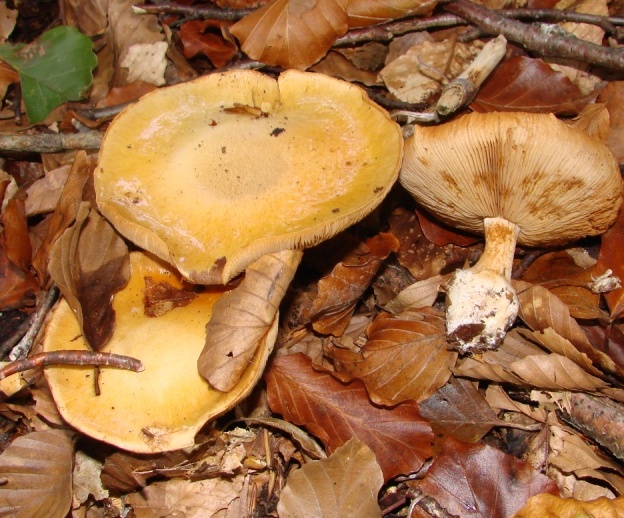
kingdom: Fungi
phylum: Basidiomycota
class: Agaricomycetes
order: Agaricales
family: Cortinariaceae
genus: Thaxterogaster
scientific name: Thaxterogaster talus
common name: knogle-slørhat
